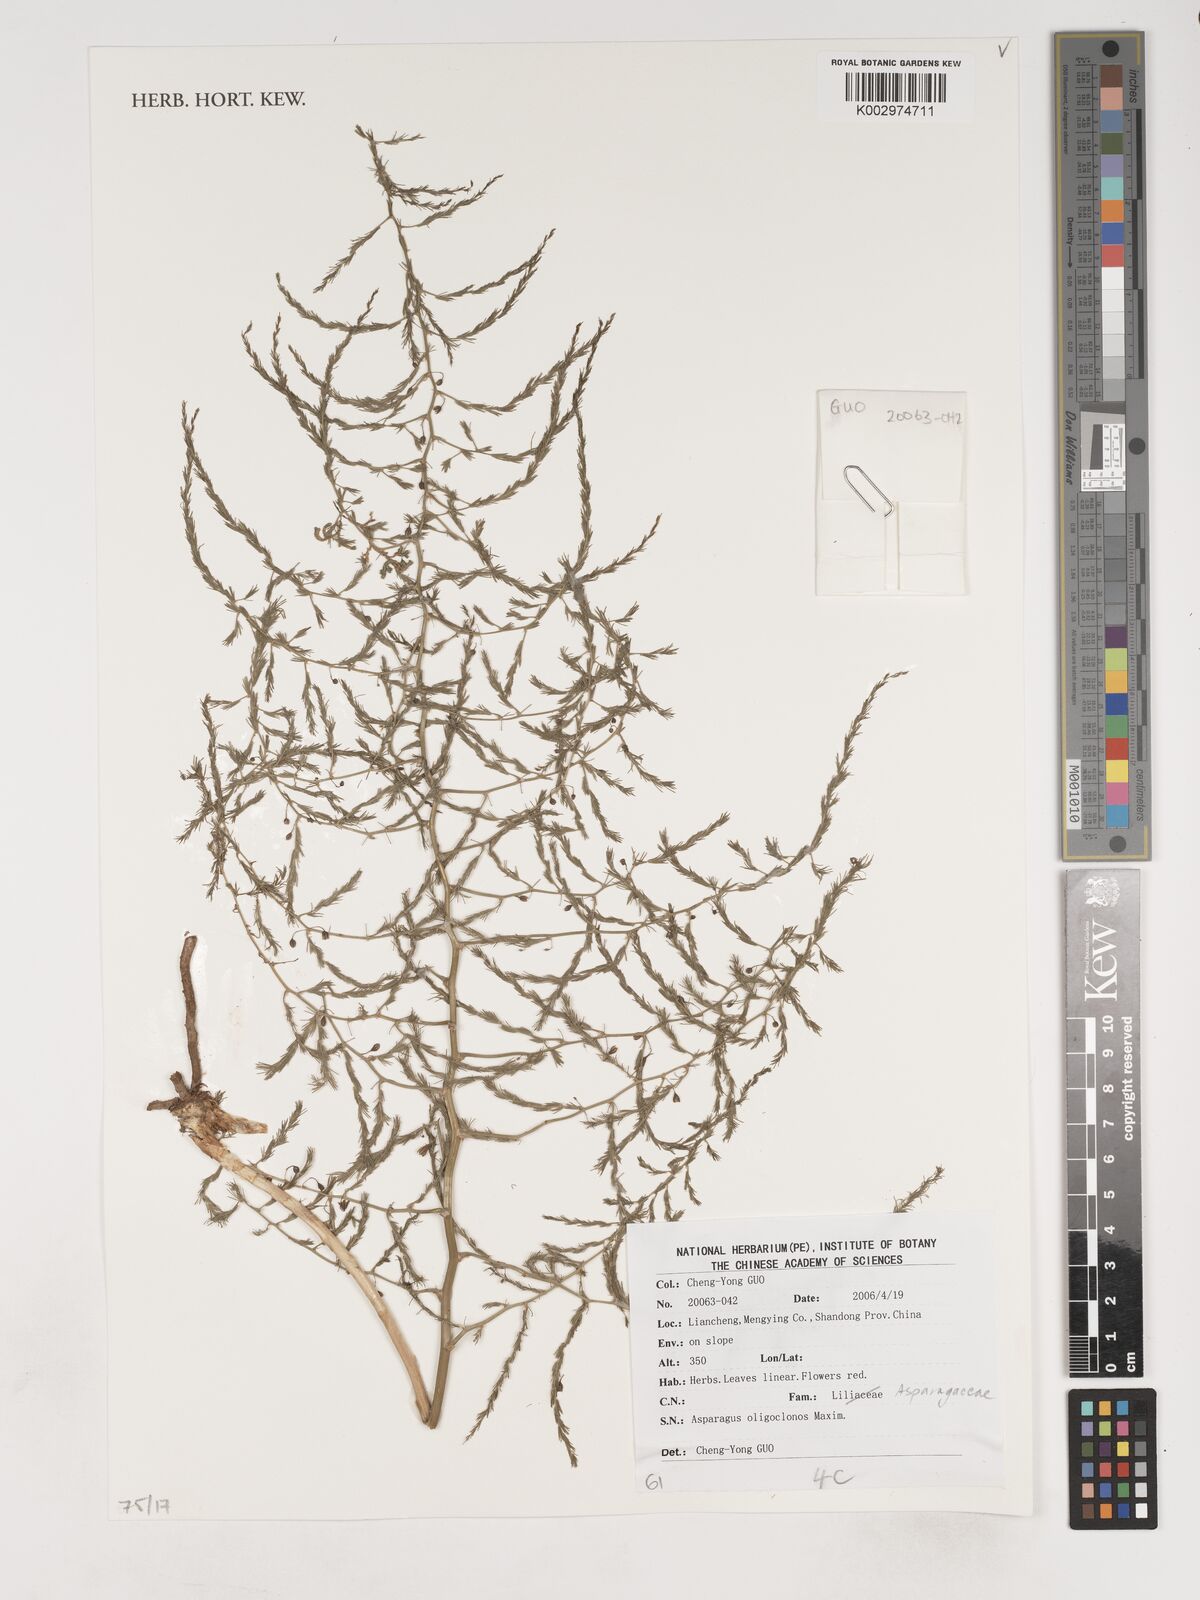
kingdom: Plantae
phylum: Tracheophyta
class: Liliopsida
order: Asparagales
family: Asparagaceae
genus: Asparagus
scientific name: Asparagus oligoclonos
